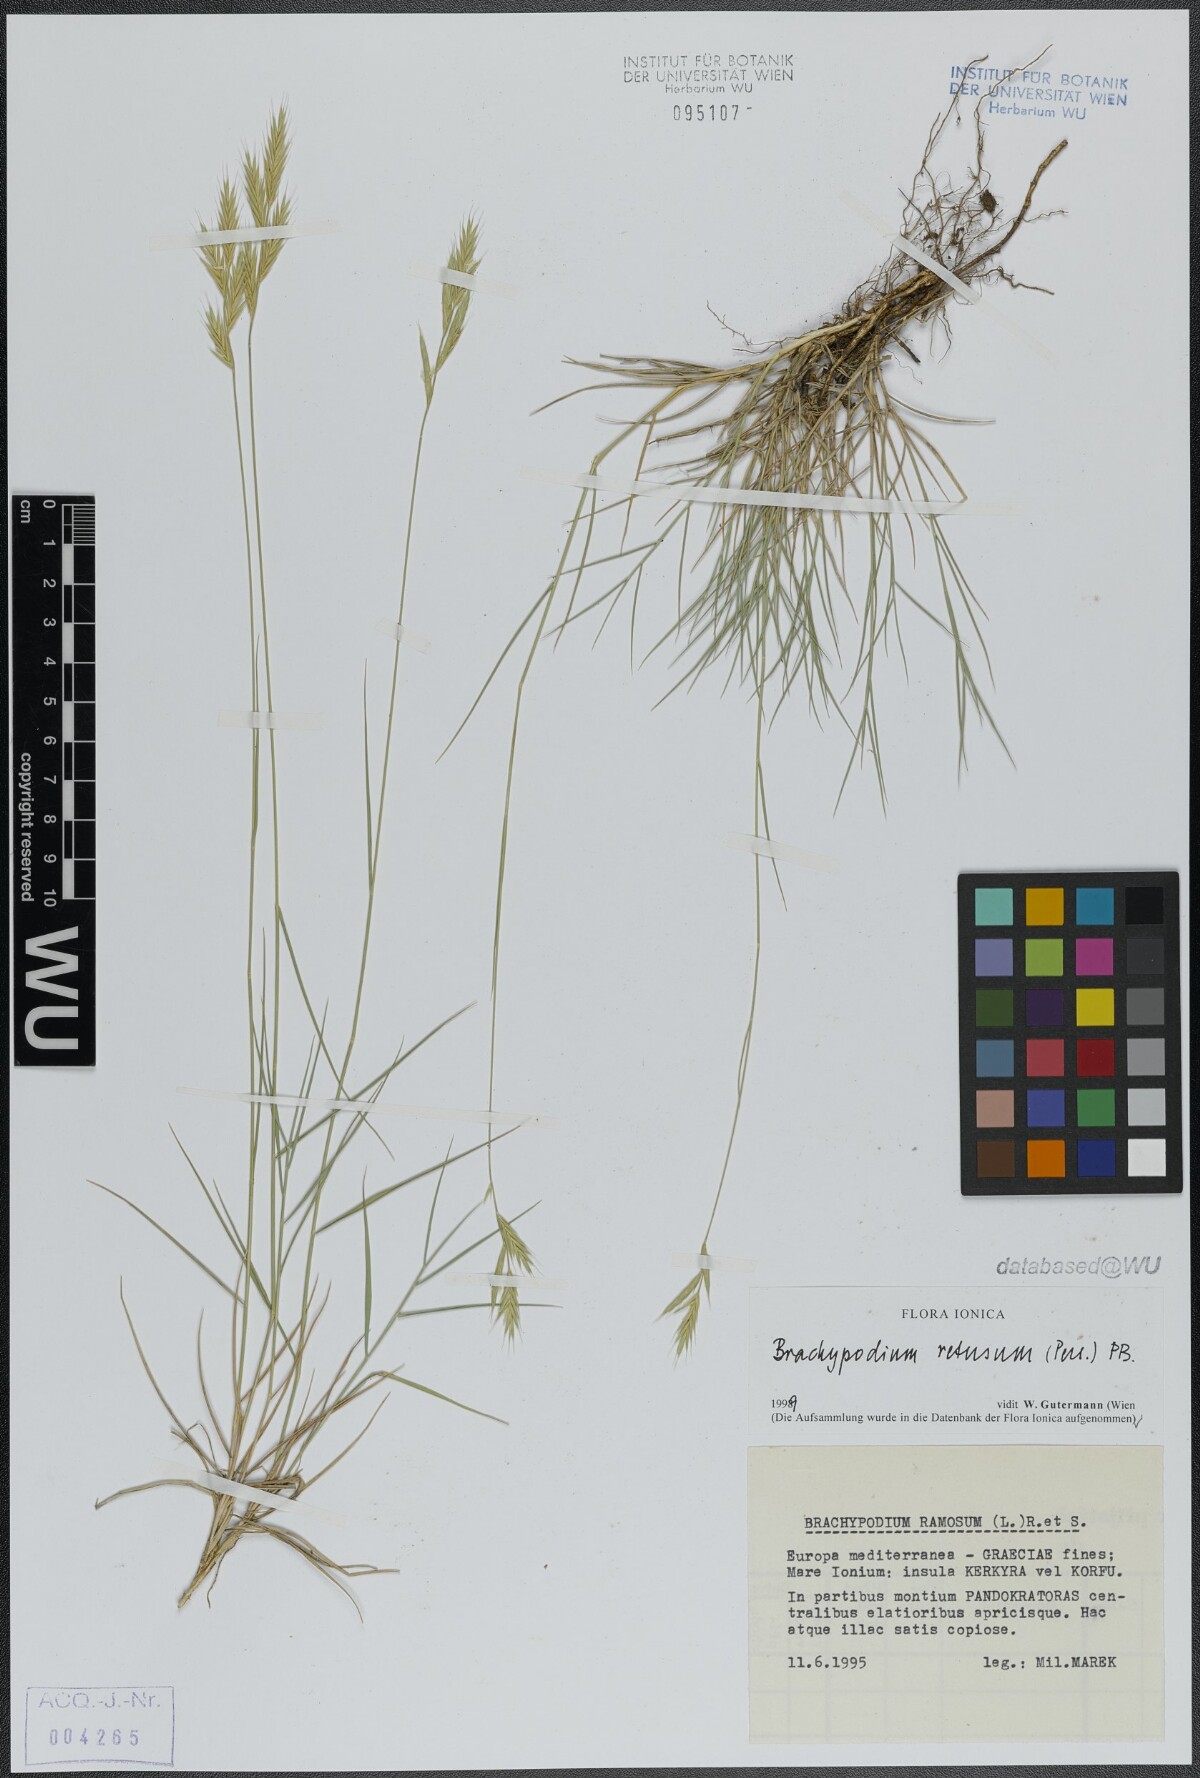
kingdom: Plantae
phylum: Tracheophyta
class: Liliopsida
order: Poales
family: Poaceae
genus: Brachypodium
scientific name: Brachypodium retusum
